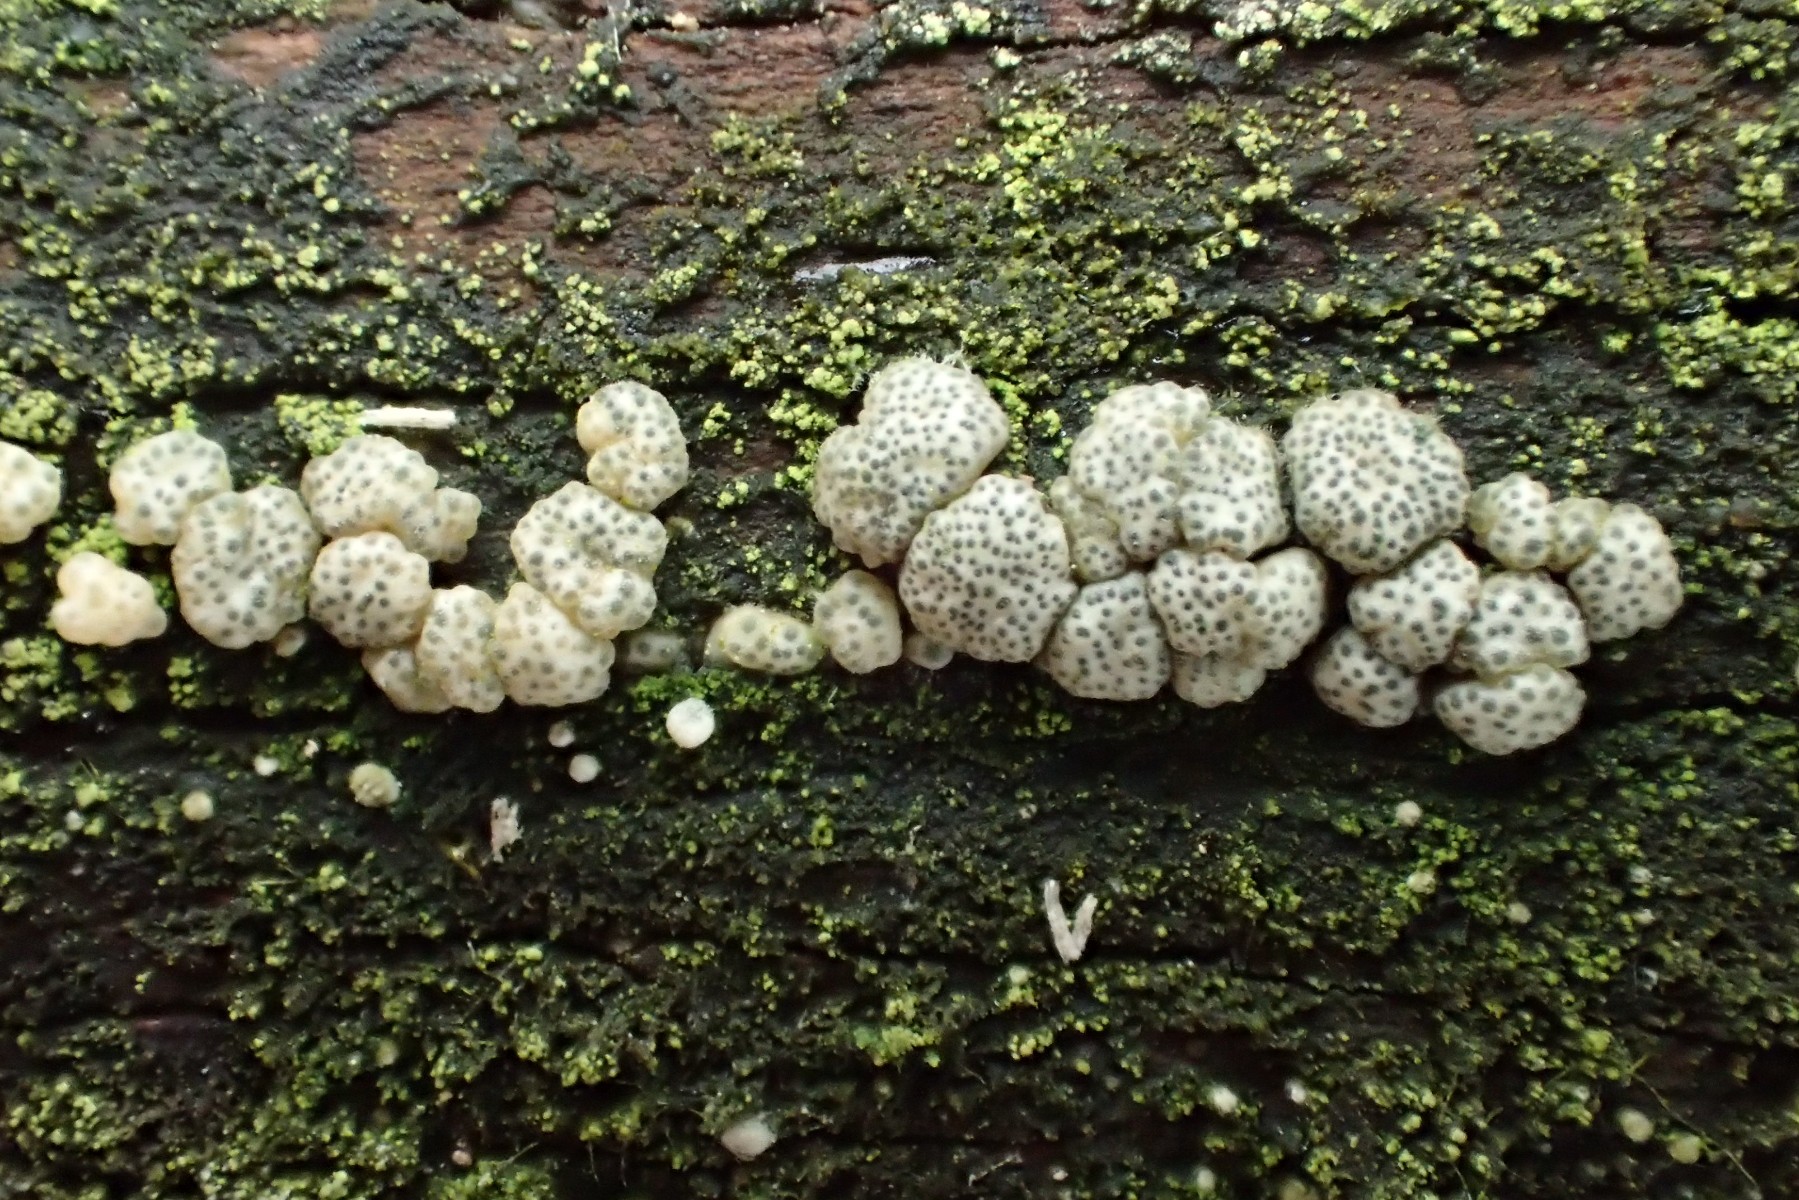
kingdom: Fungi
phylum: Ascomycota
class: Sordariomycetes
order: Hypocreales
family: Hypocreaceae
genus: Trichoderma
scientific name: Trichoderma strictipile
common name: grønprikket kødkerne
